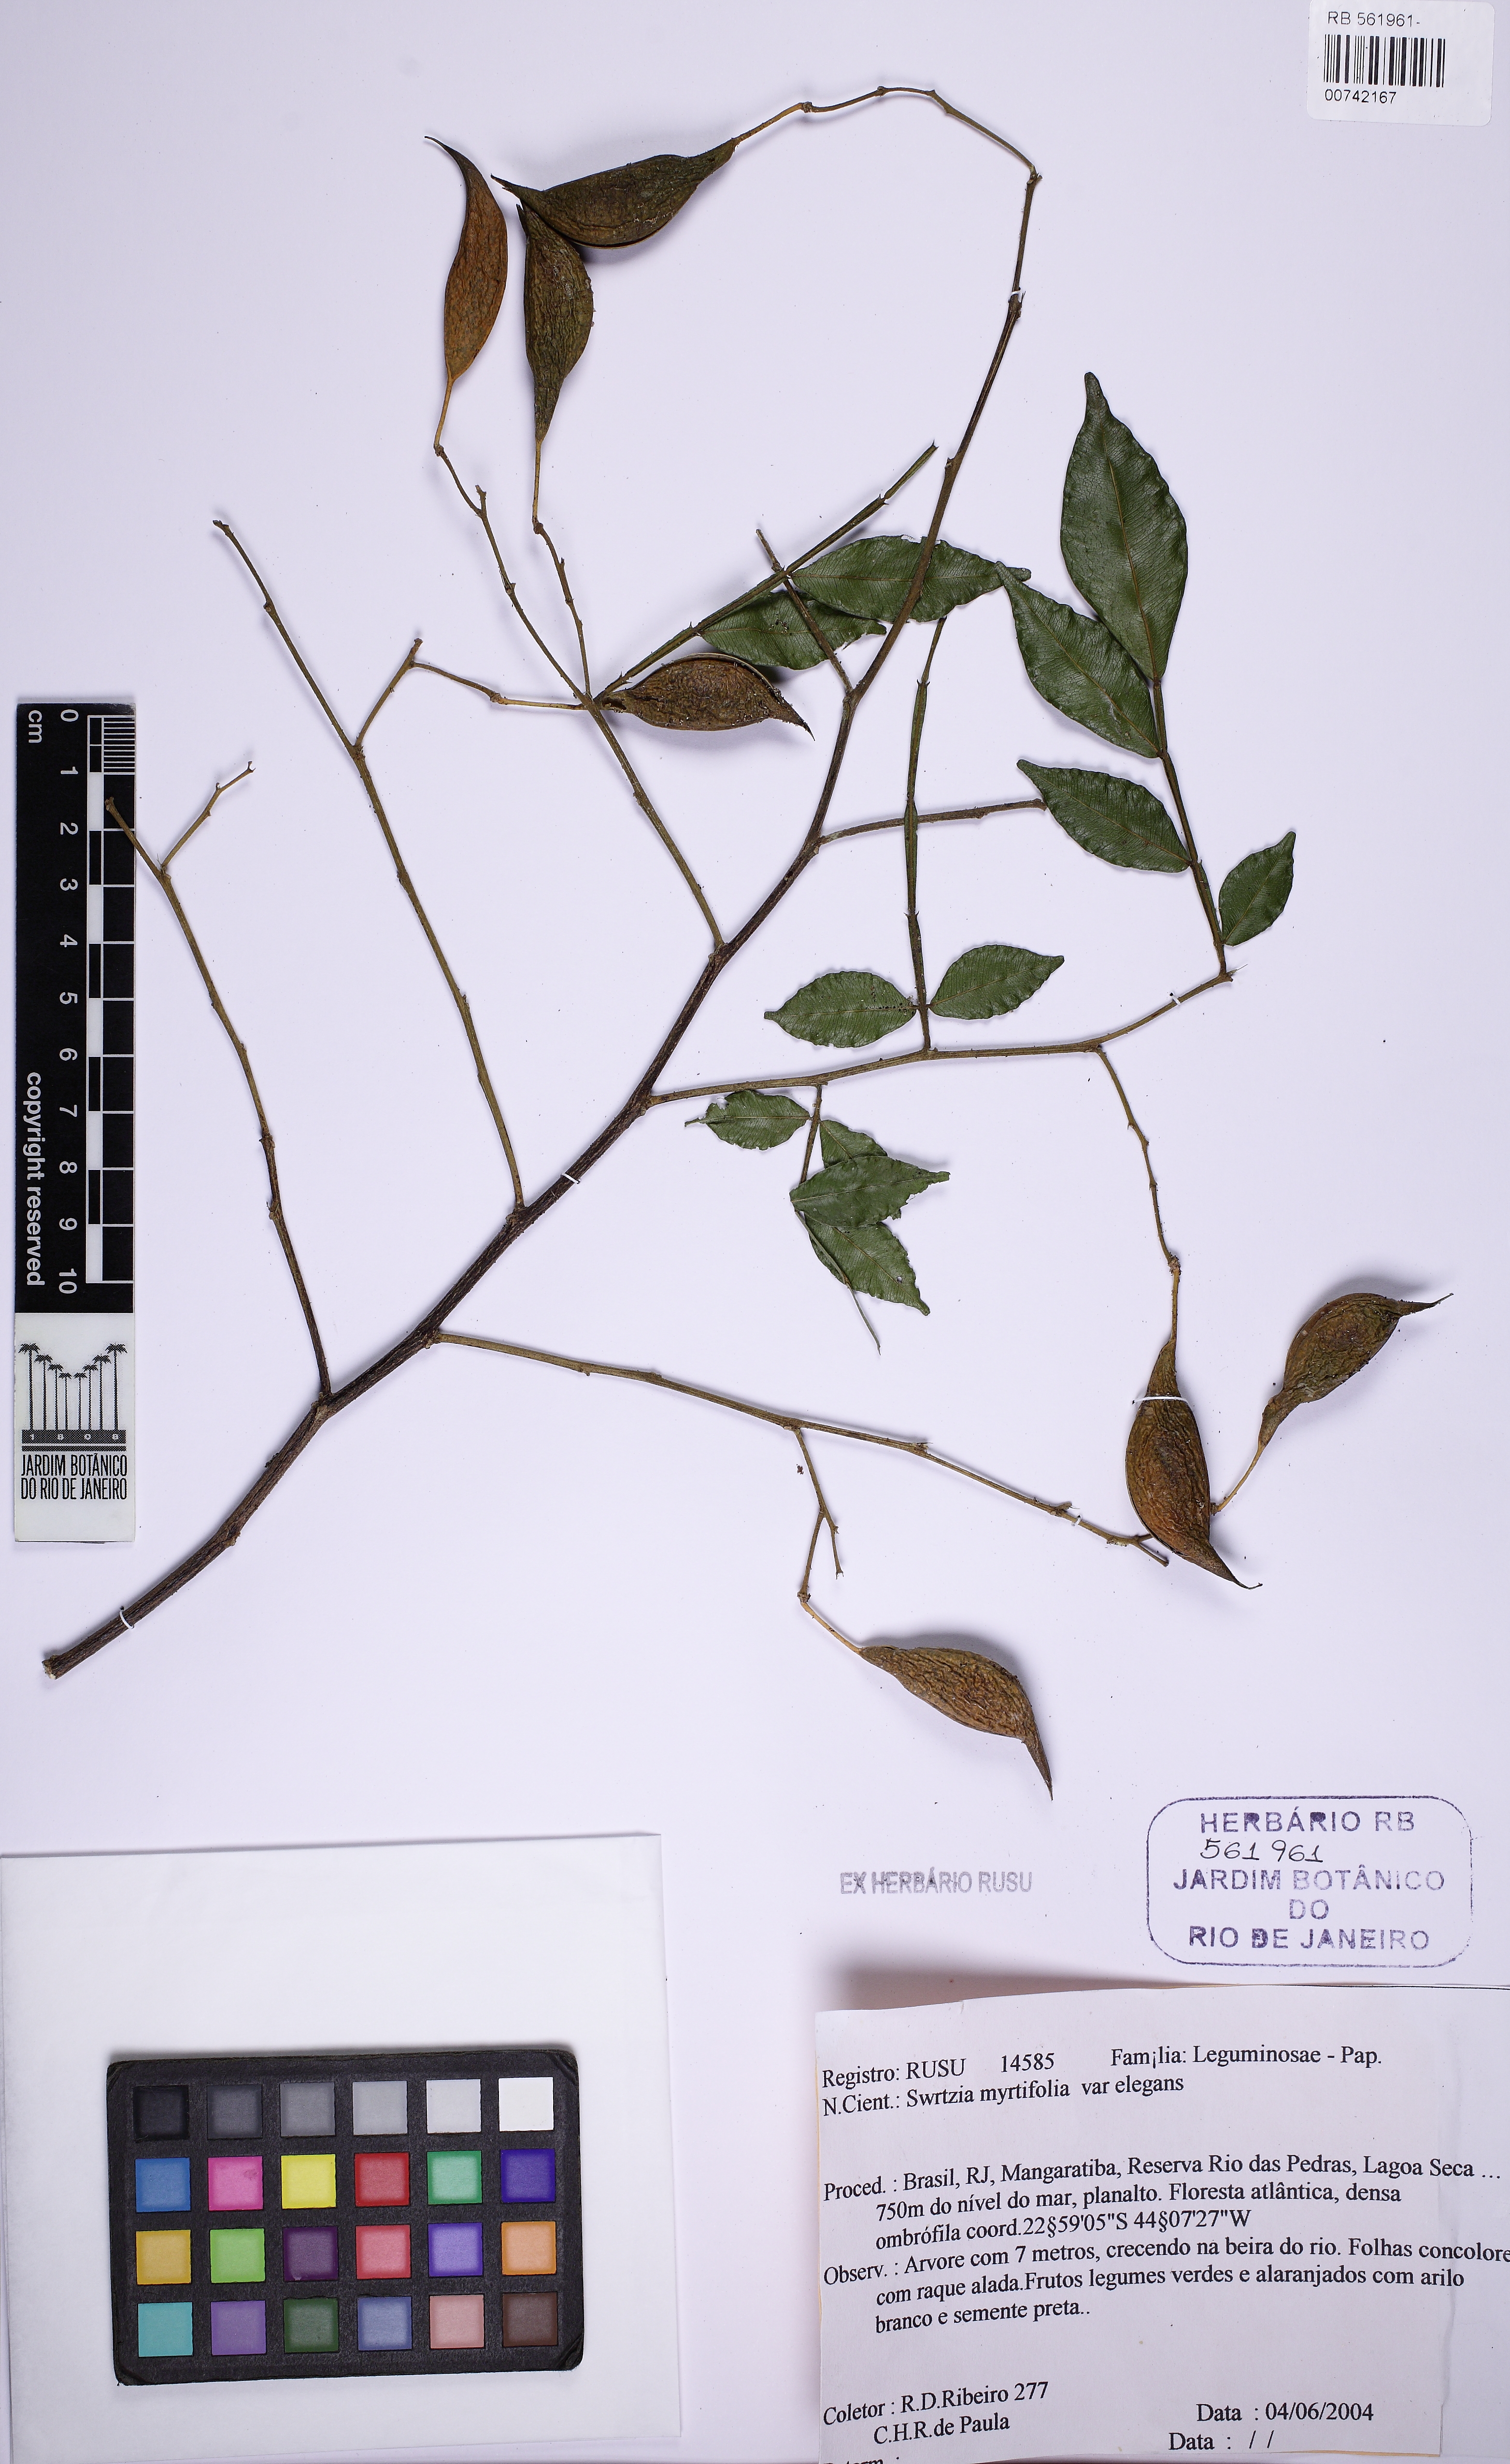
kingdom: Plantae
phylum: Tracheophyta
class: Magnoliopsida
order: Fabales
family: Fabaceae
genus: Swartzia
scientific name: Swartzia myrtifolia
